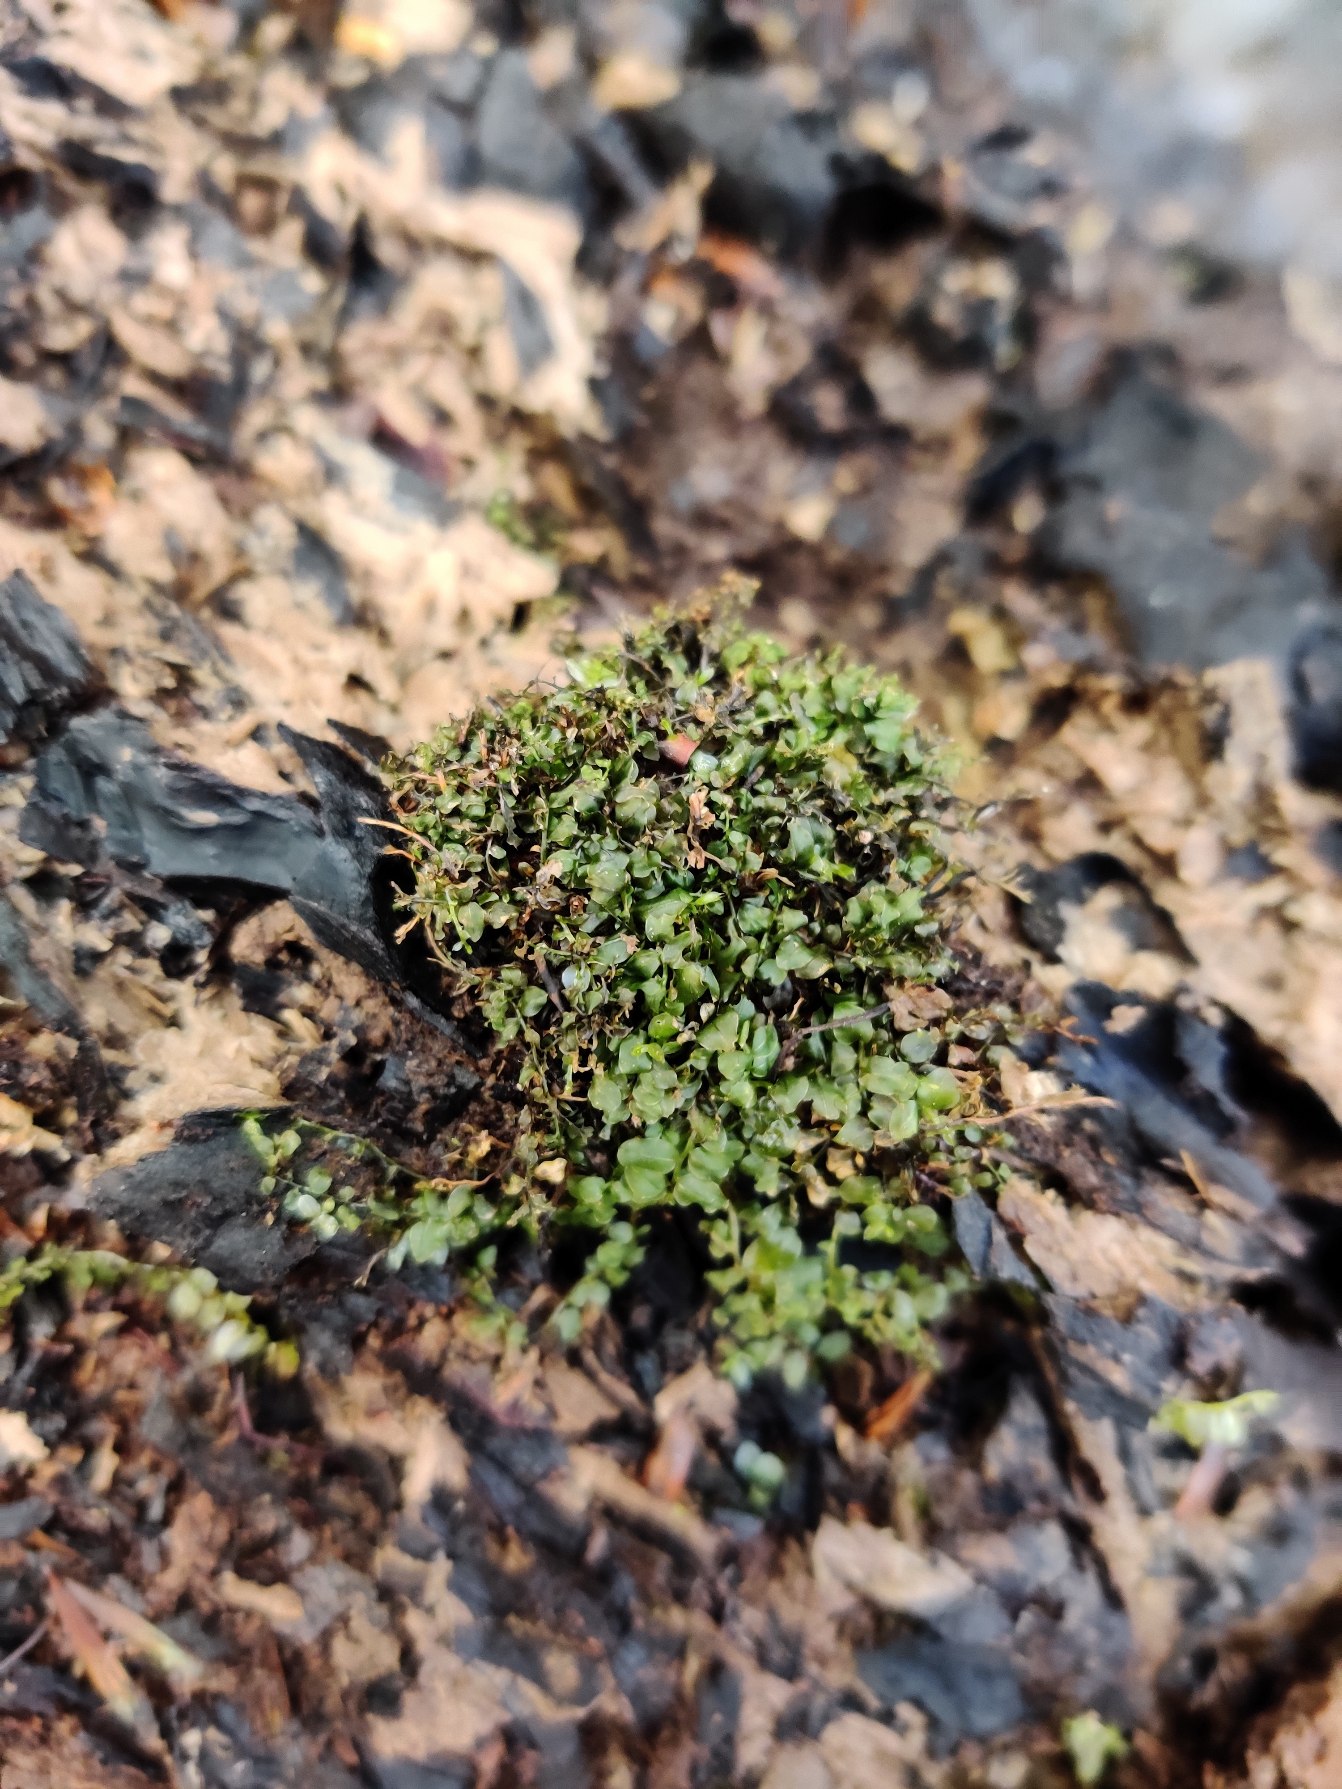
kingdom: Plantae
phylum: Bryophyta
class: Bryopsida
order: Bryales
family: Mniaceae
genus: Plagiomnium
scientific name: Plagiomnium
